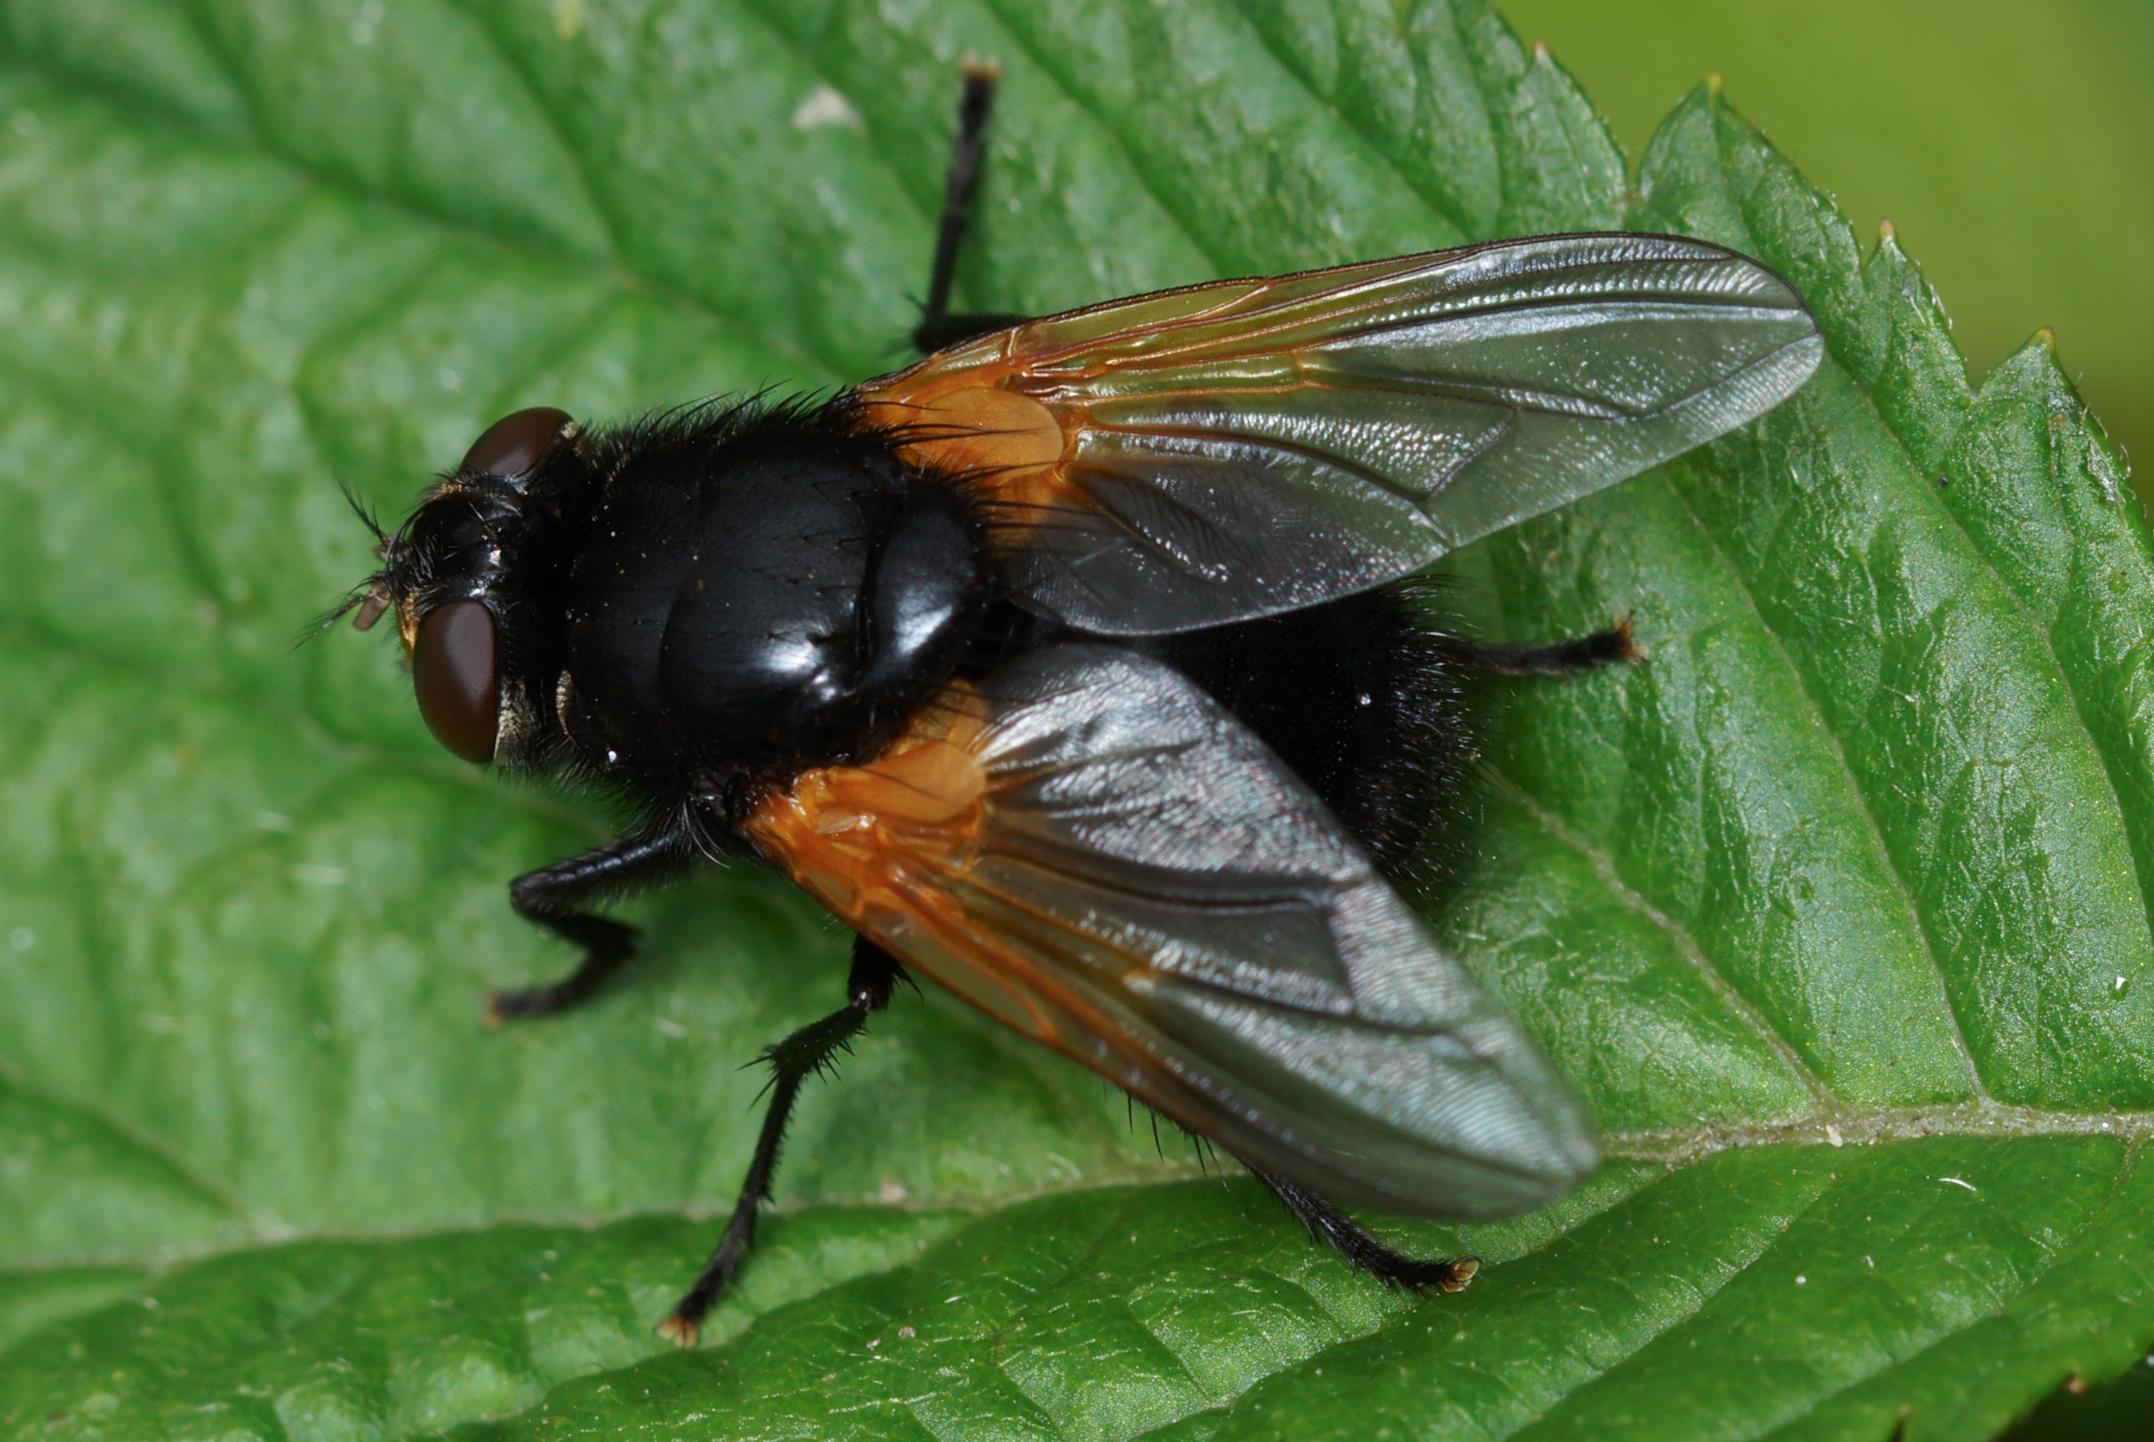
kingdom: Animalia
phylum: Arthropoda
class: Insecta
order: Diptera
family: Muscidae
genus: Mesembrina
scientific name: Mesembrina meridiana
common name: Gulvinget flue
